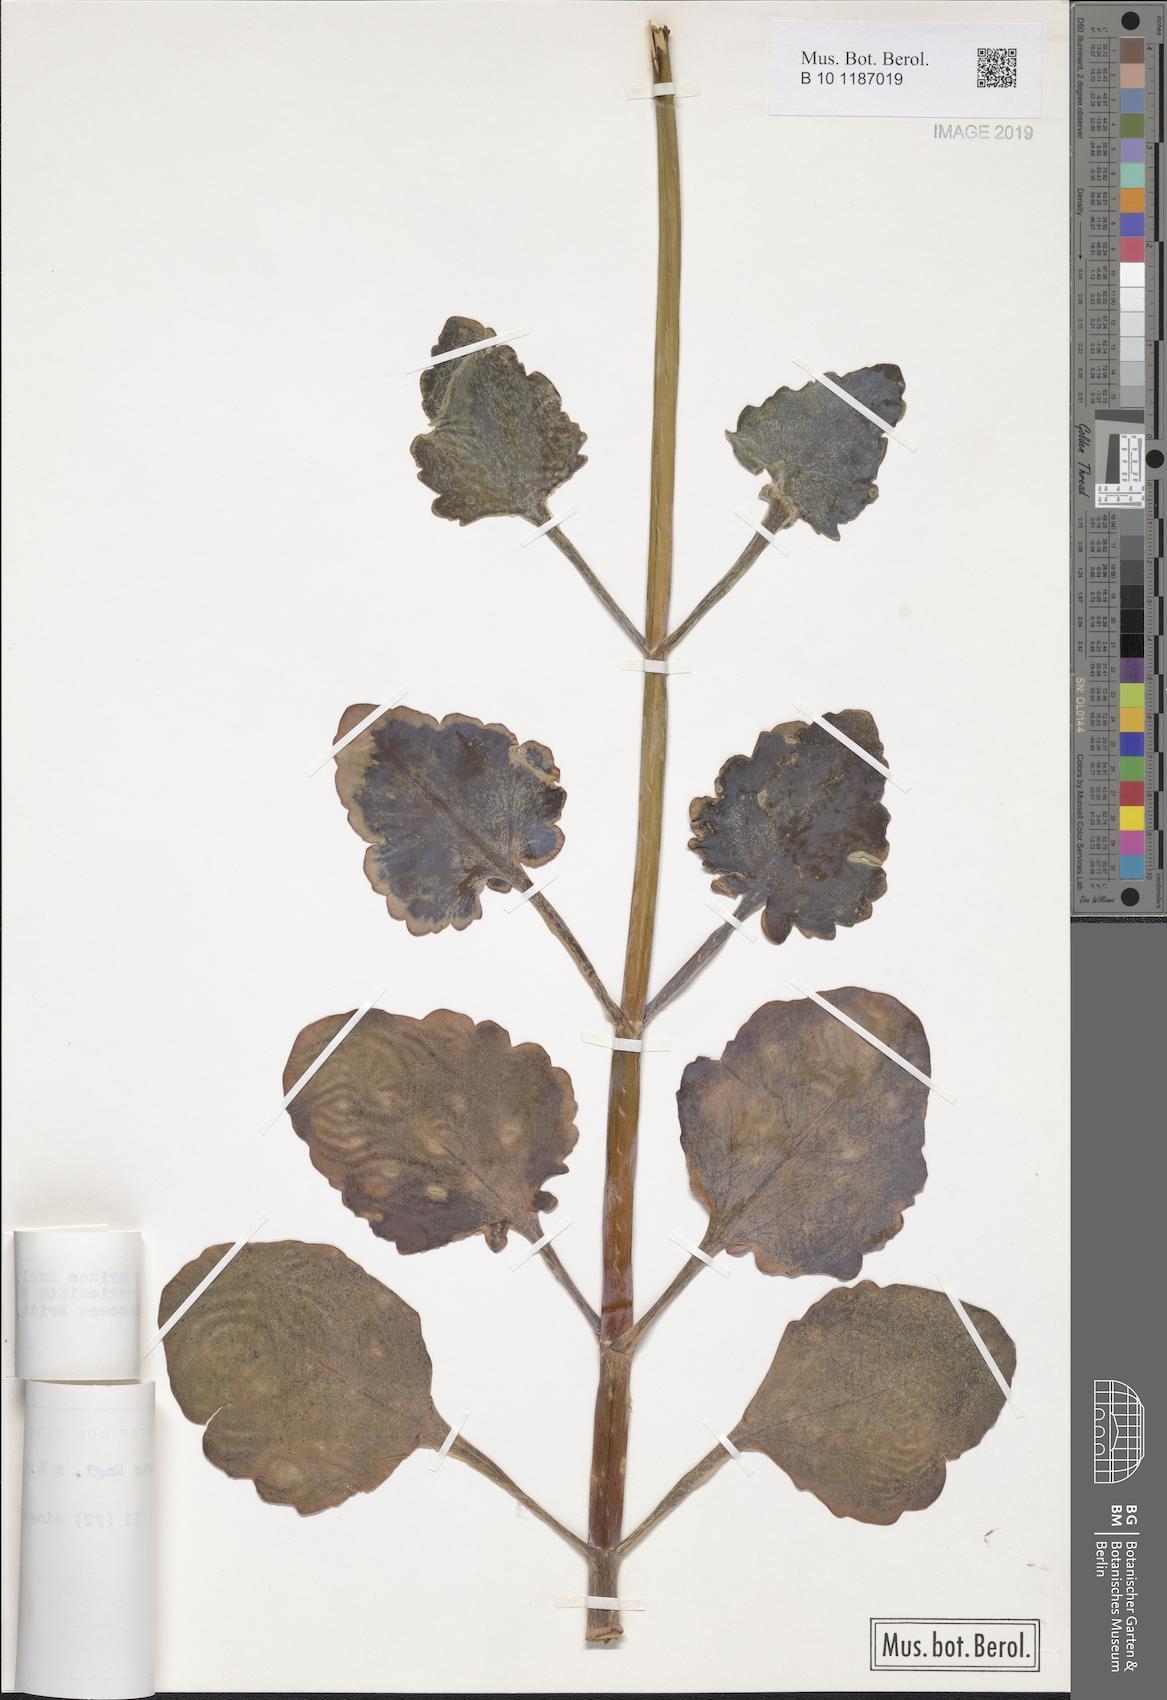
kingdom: Plantae
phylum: Tracheophyta
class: Magnoliopsida
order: Saxifragales
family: Crassulaceae
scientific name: Crassulaceae
